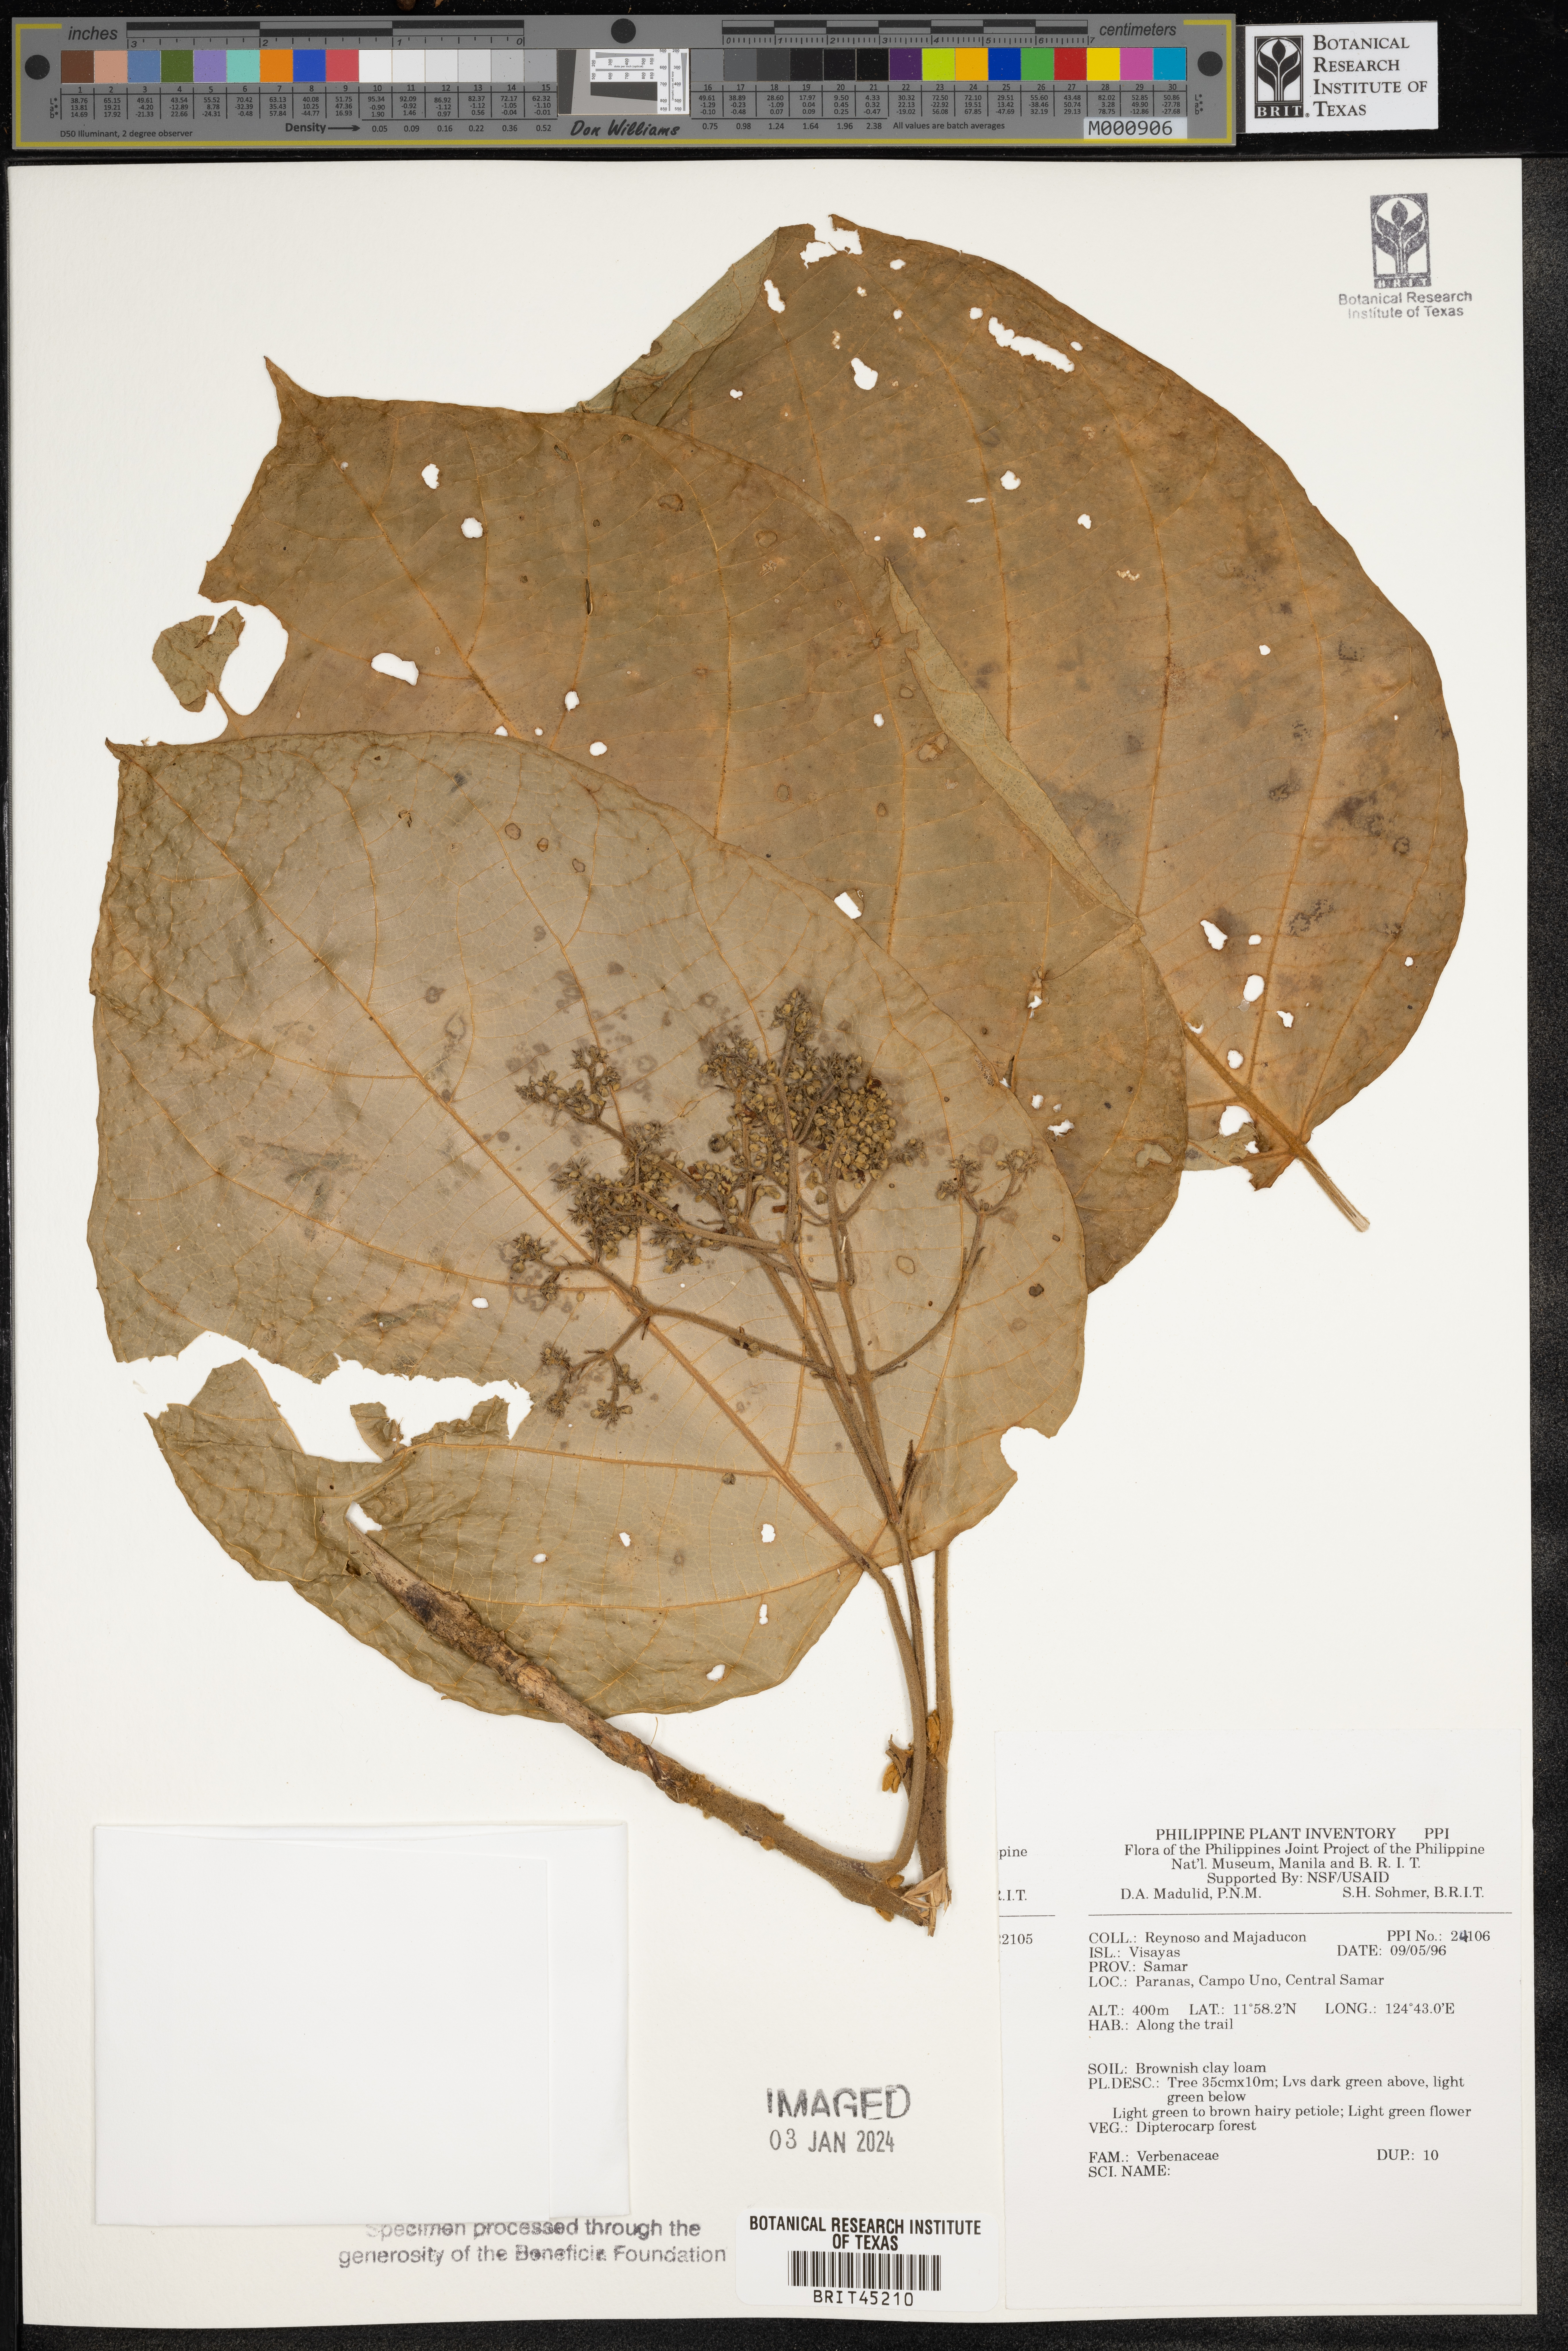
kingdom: Plantae
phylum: Tracheophyta
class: Magnoliopsida
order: Lamiales
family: Verbenaceae
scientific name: Verbenaceae
